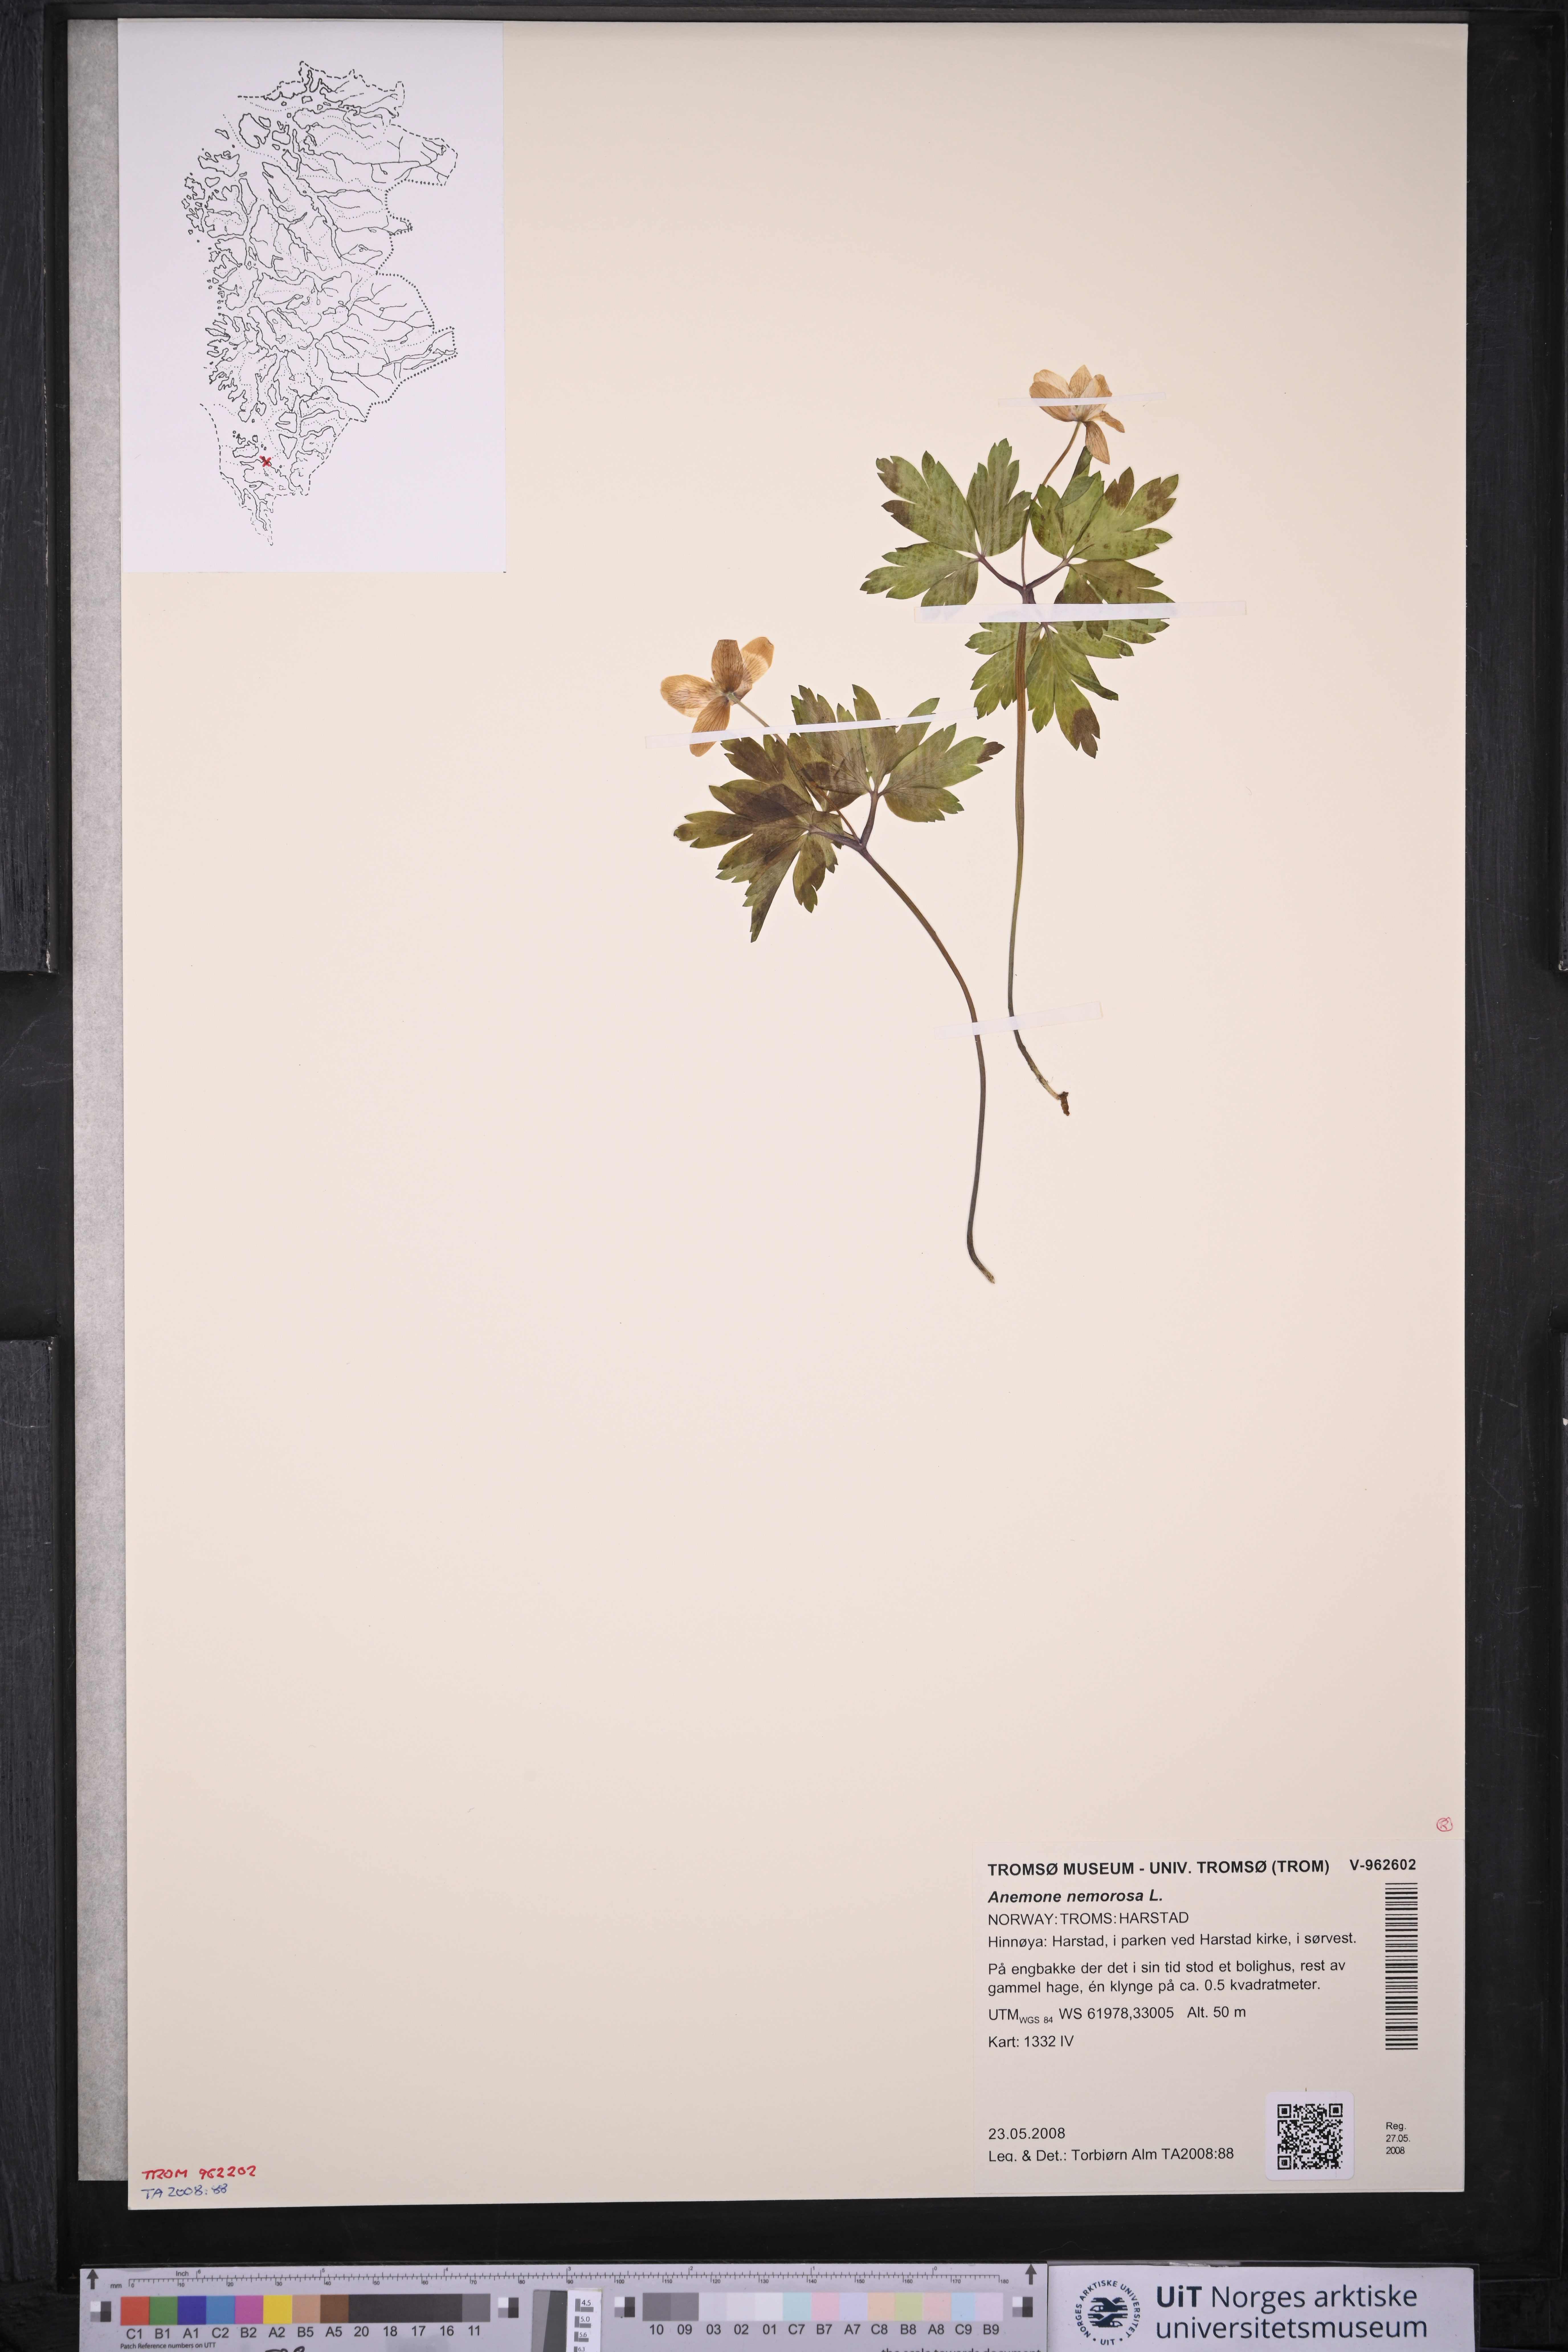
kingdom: Plantae
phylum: Tracheophyta
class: Magnoliopsida
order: Ranunculales
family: Ranunculaceae
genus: Anemone
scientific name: Anemone nemorosa
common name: Wood anemone
